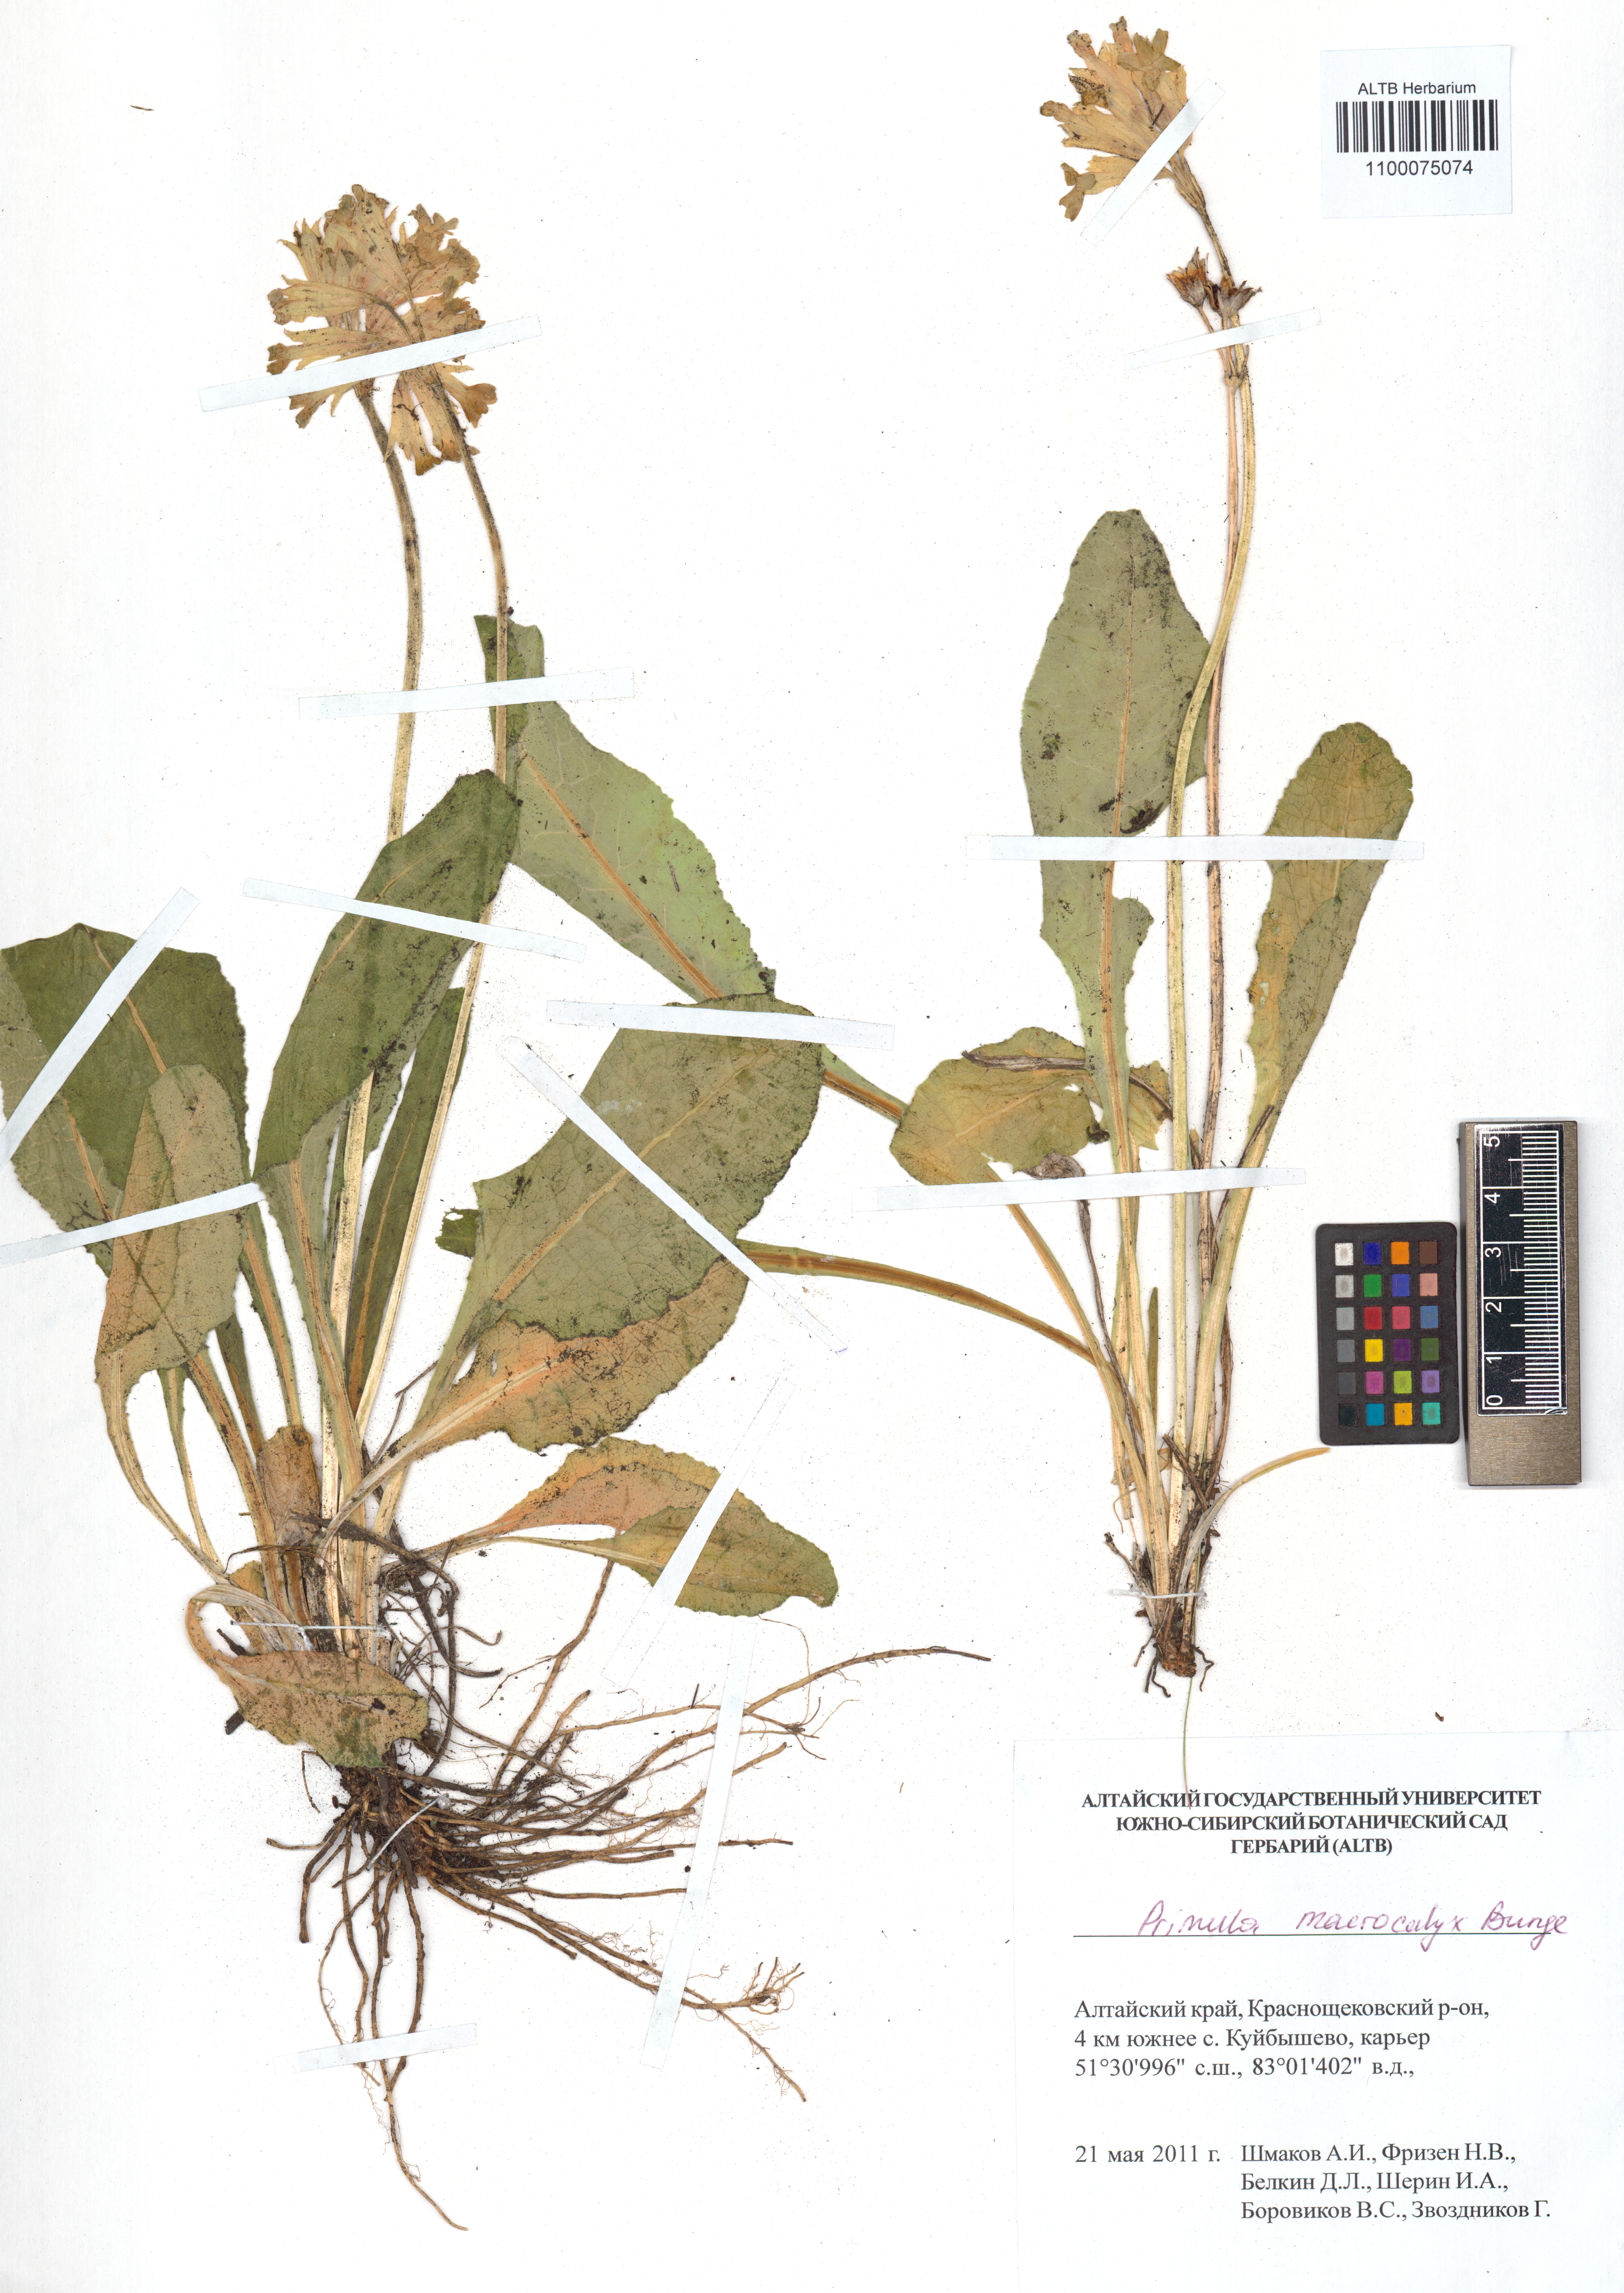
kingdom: Plantae
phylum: Tracheophyta
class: Magnoliopsida
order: Ericales
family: Primulaceae
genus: Primula
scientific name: Primula veris
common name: Cowslip
